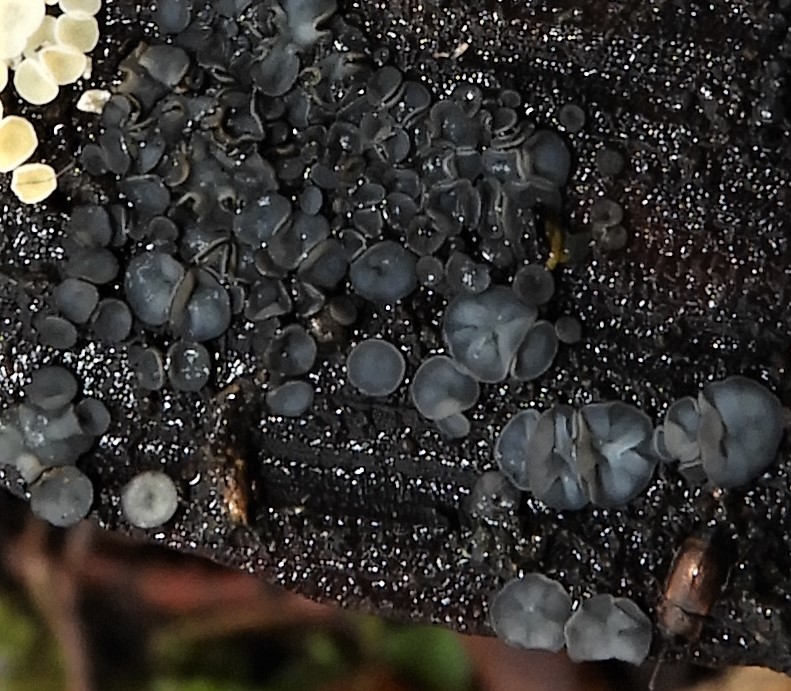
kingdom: Fungi
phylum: Ascomycota
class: Leotiomycetes
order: Helotiales
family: Mollisiaceae
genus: Mollisia
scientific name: Mollisia
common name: gråskive
